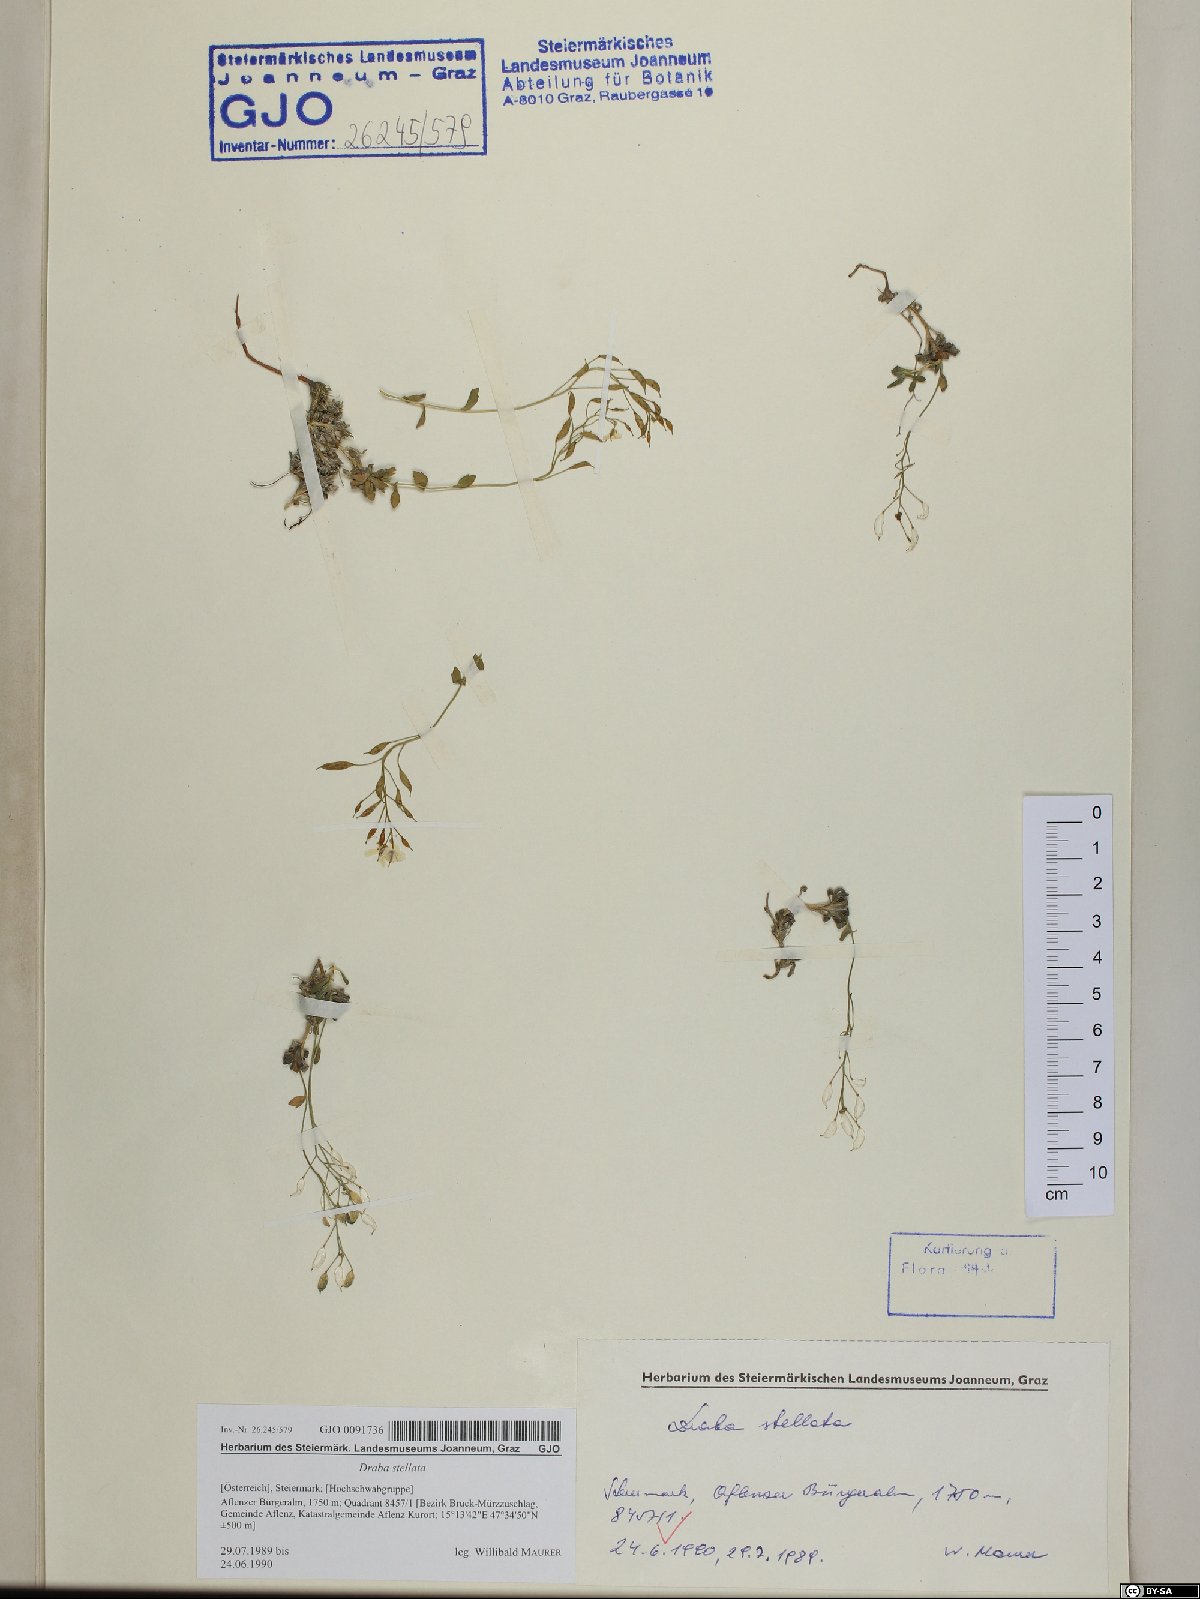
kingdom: Plantae
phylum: Tracheophyta
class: Magnoliopsida
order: Brassicales
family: Brassicaceae
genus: Draba
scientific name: Draba stellata
